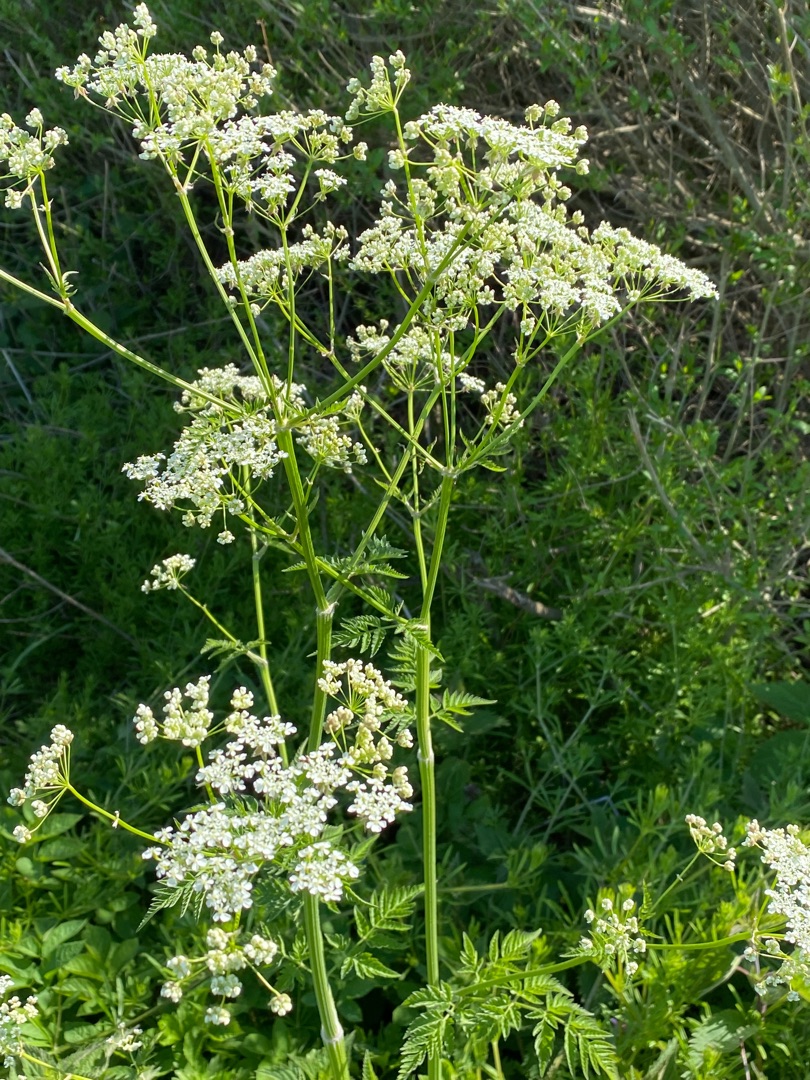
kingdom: Plantae
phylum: Tracheophyta
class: Magnoliopsida
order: Apiales
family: Apiaceae
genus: Anthriscus
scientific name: Anthriscus sylvestris
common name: Vild kørvel
